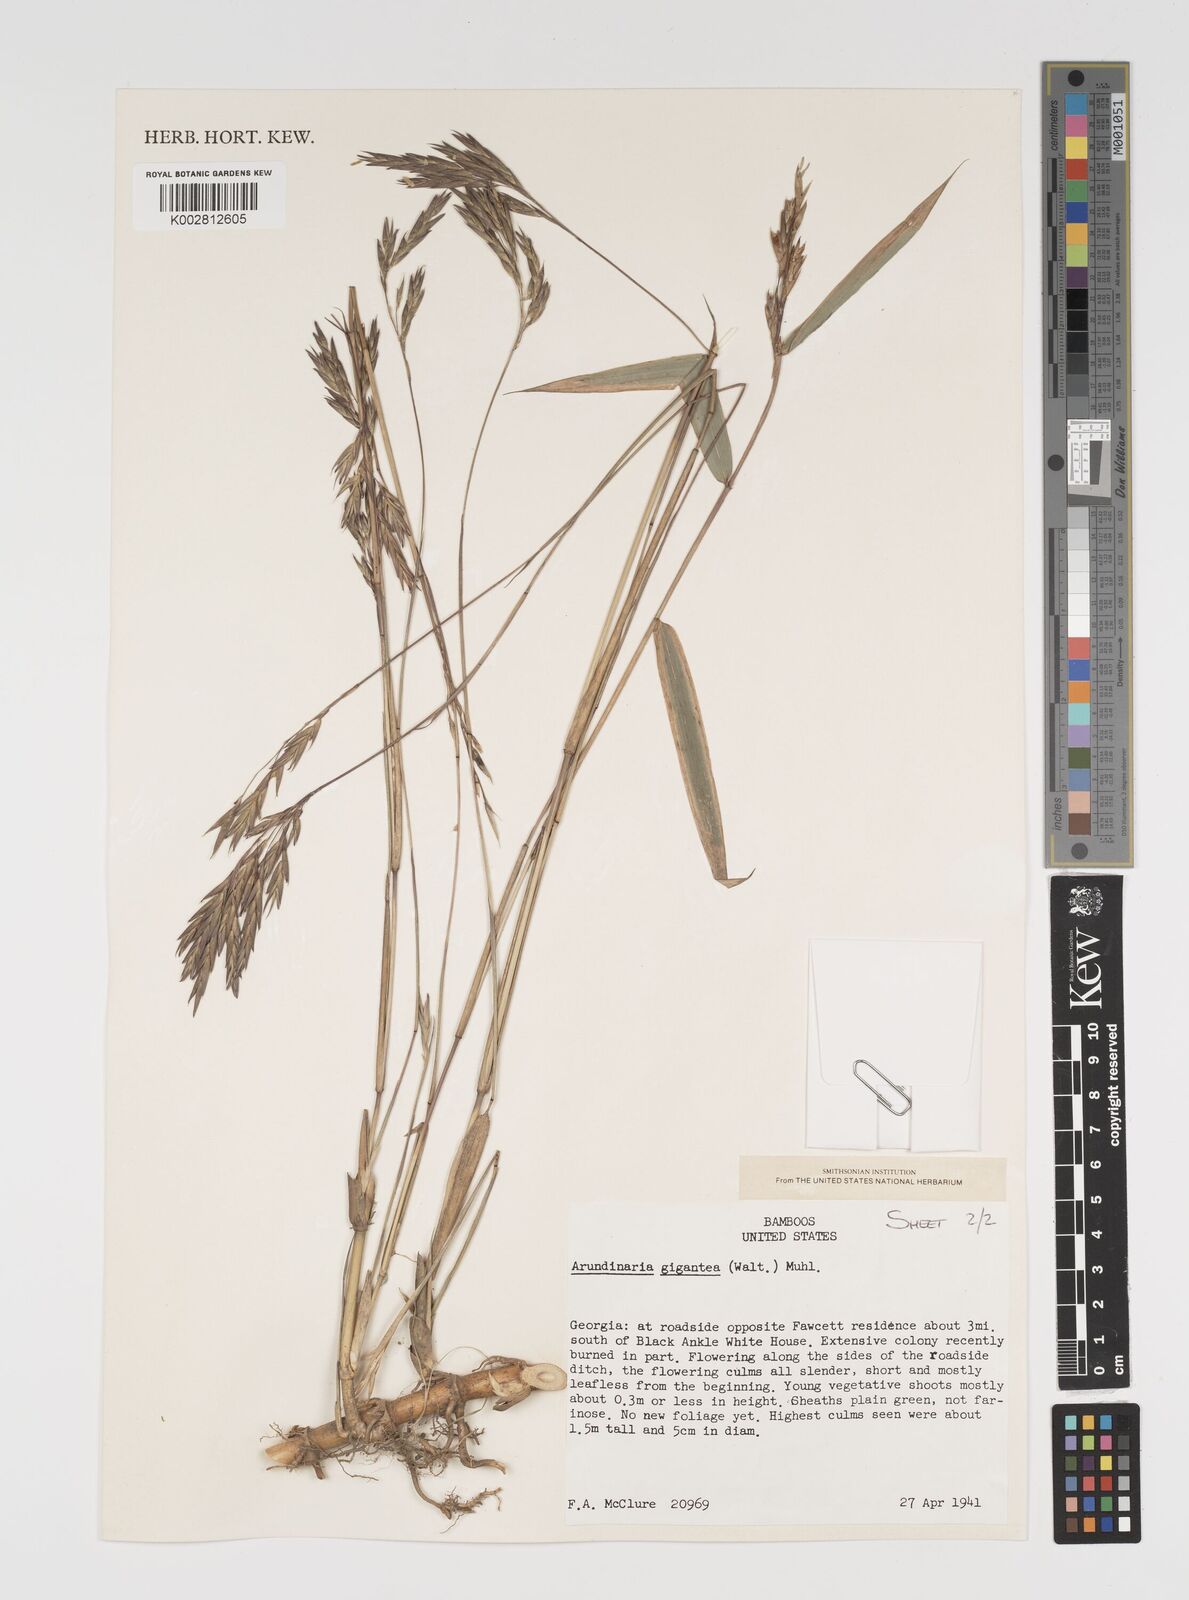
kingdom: Plantae
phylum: Tracheophyta
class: Liliopsida
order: Poales
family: Poaceae
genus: Arundinaria
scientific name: Arundinaria gigantea
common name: Giant cane
